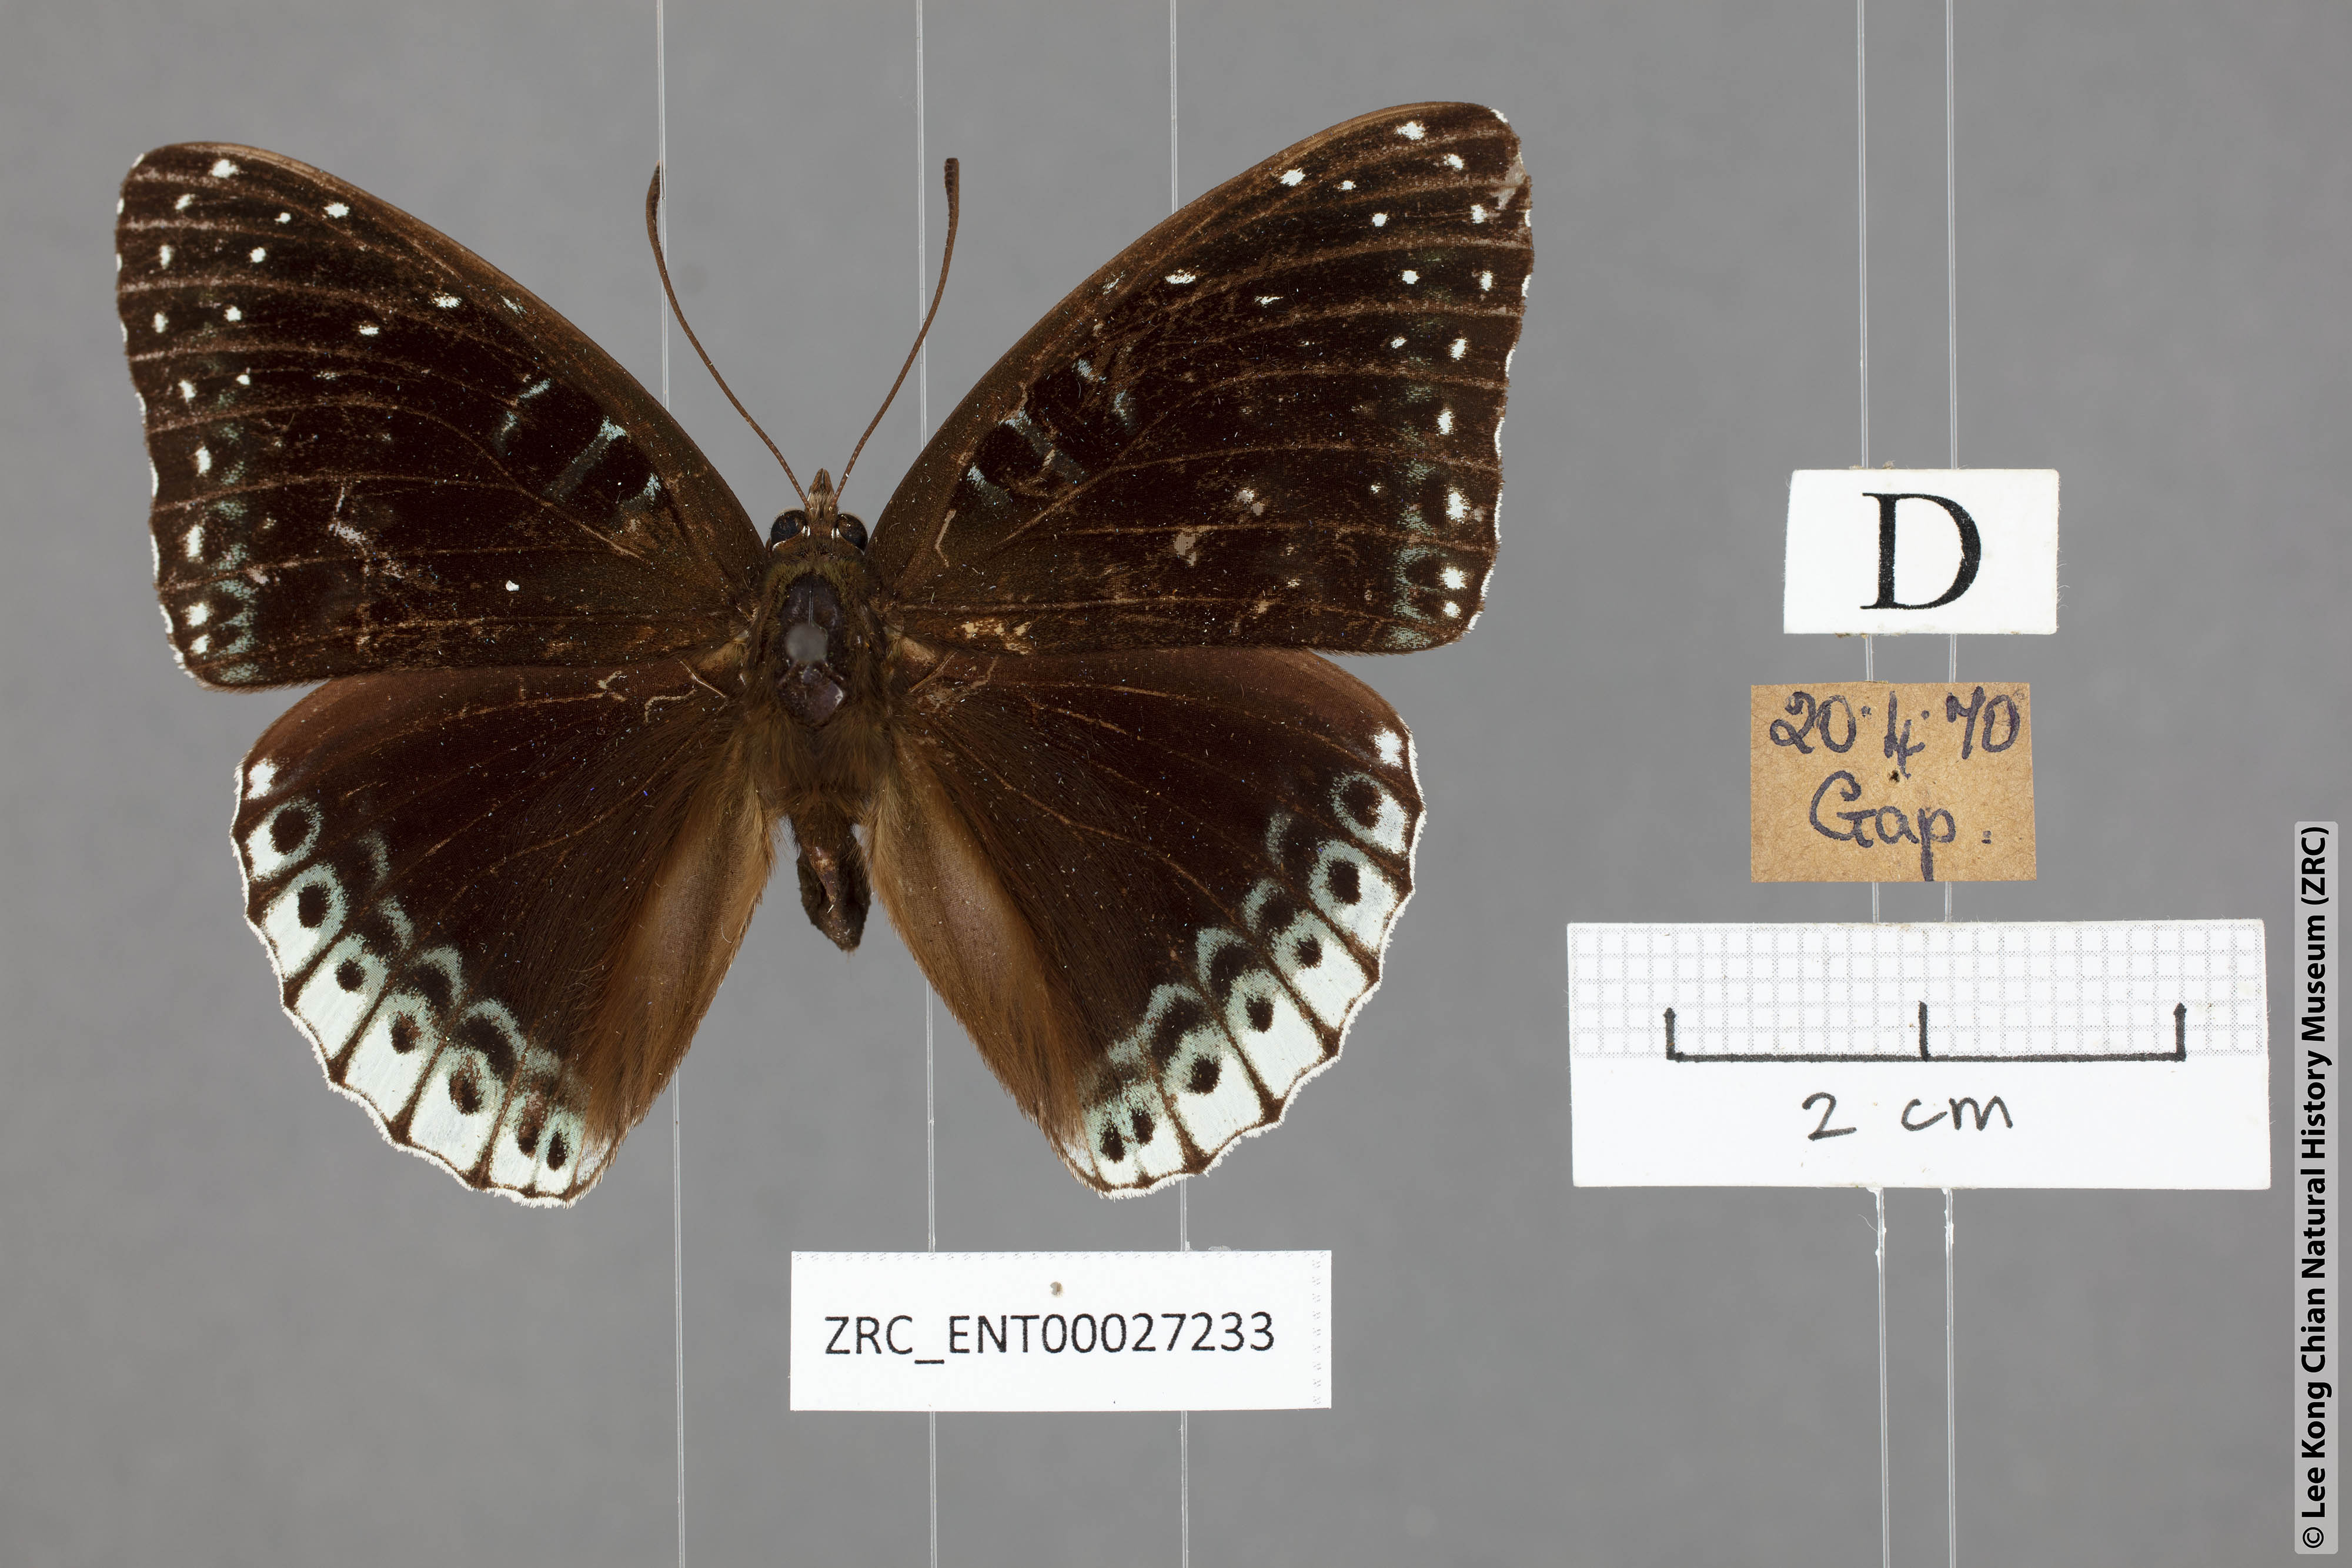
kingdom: Animalia
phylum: Arthropoda
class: Insecta
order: Lepidoptera
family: Nymphalidae
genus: Stibochiona
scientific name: Stibochiona nicea
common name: Popinjay
